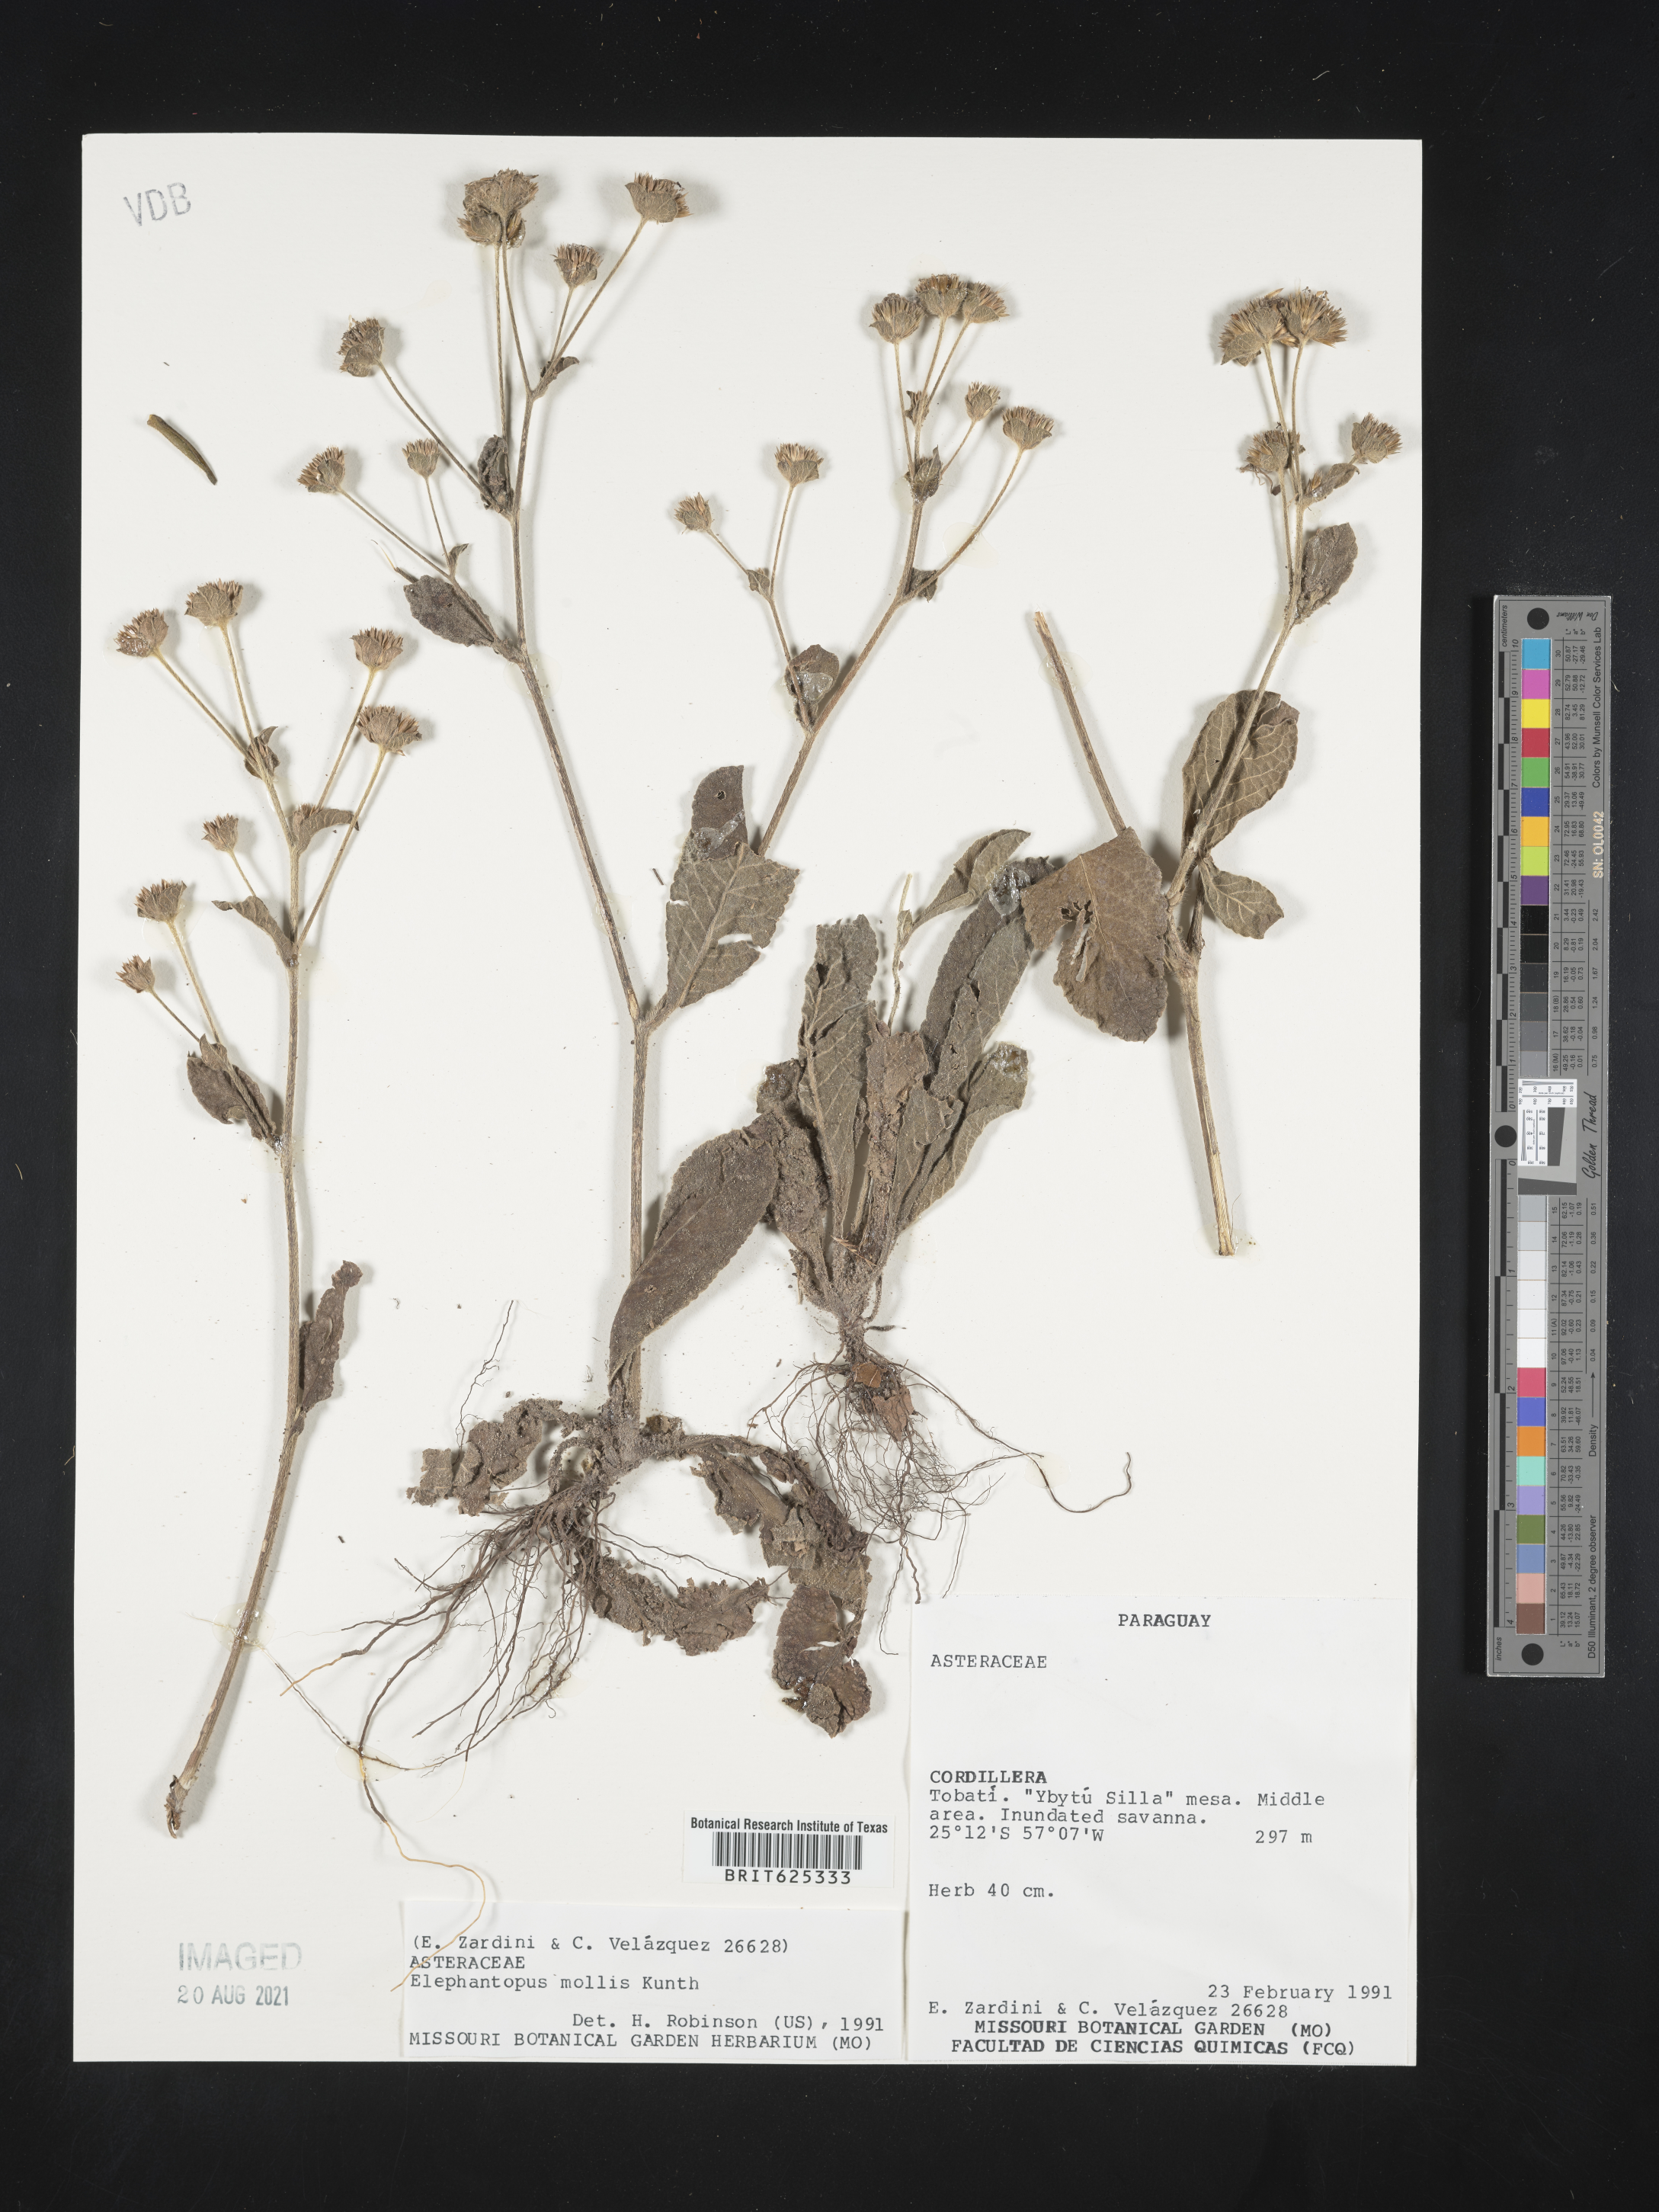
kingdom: Plantae
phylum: Tracheophyta
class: Magnoliopsida
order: Asterales
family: Asteraceae
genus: Elephantopus
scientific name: Elephantopus mollis
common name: Soft elephantsfoot
